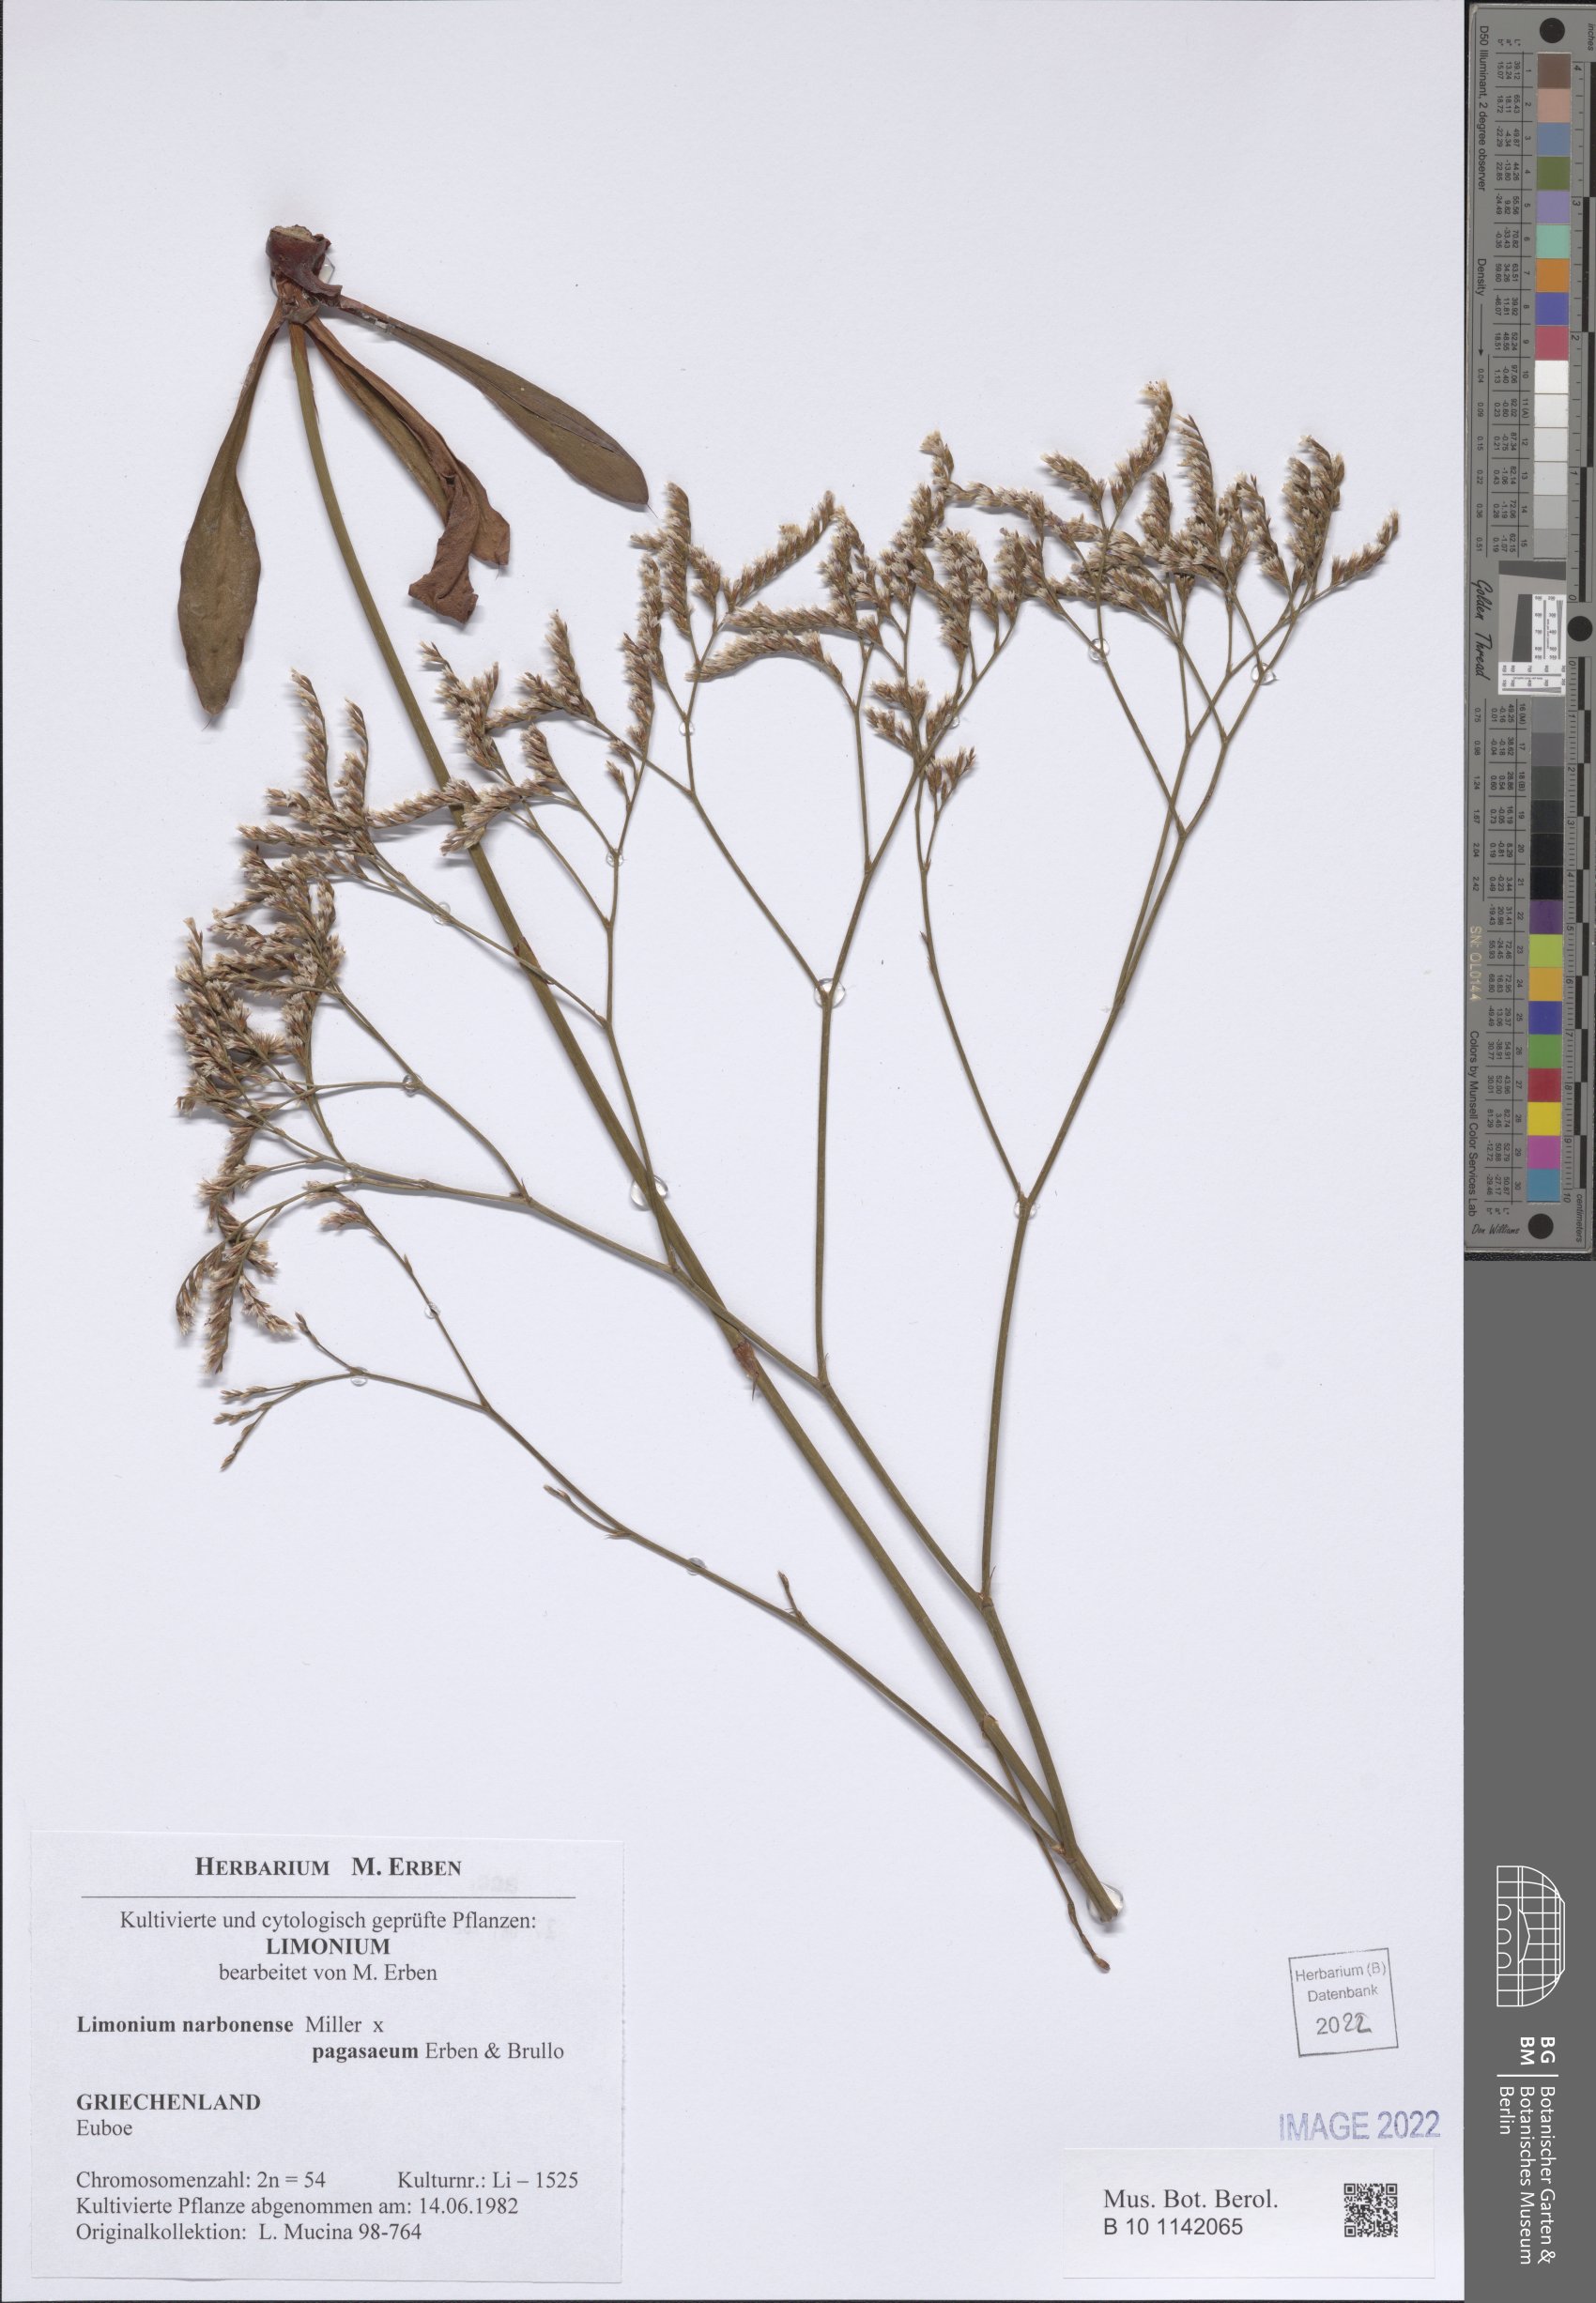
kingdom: Plantae
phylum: Tracheophyta
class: Magnoliopsida
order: Caryophyllales
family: Plumbaginaceae
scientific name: Plumbaginaceae
